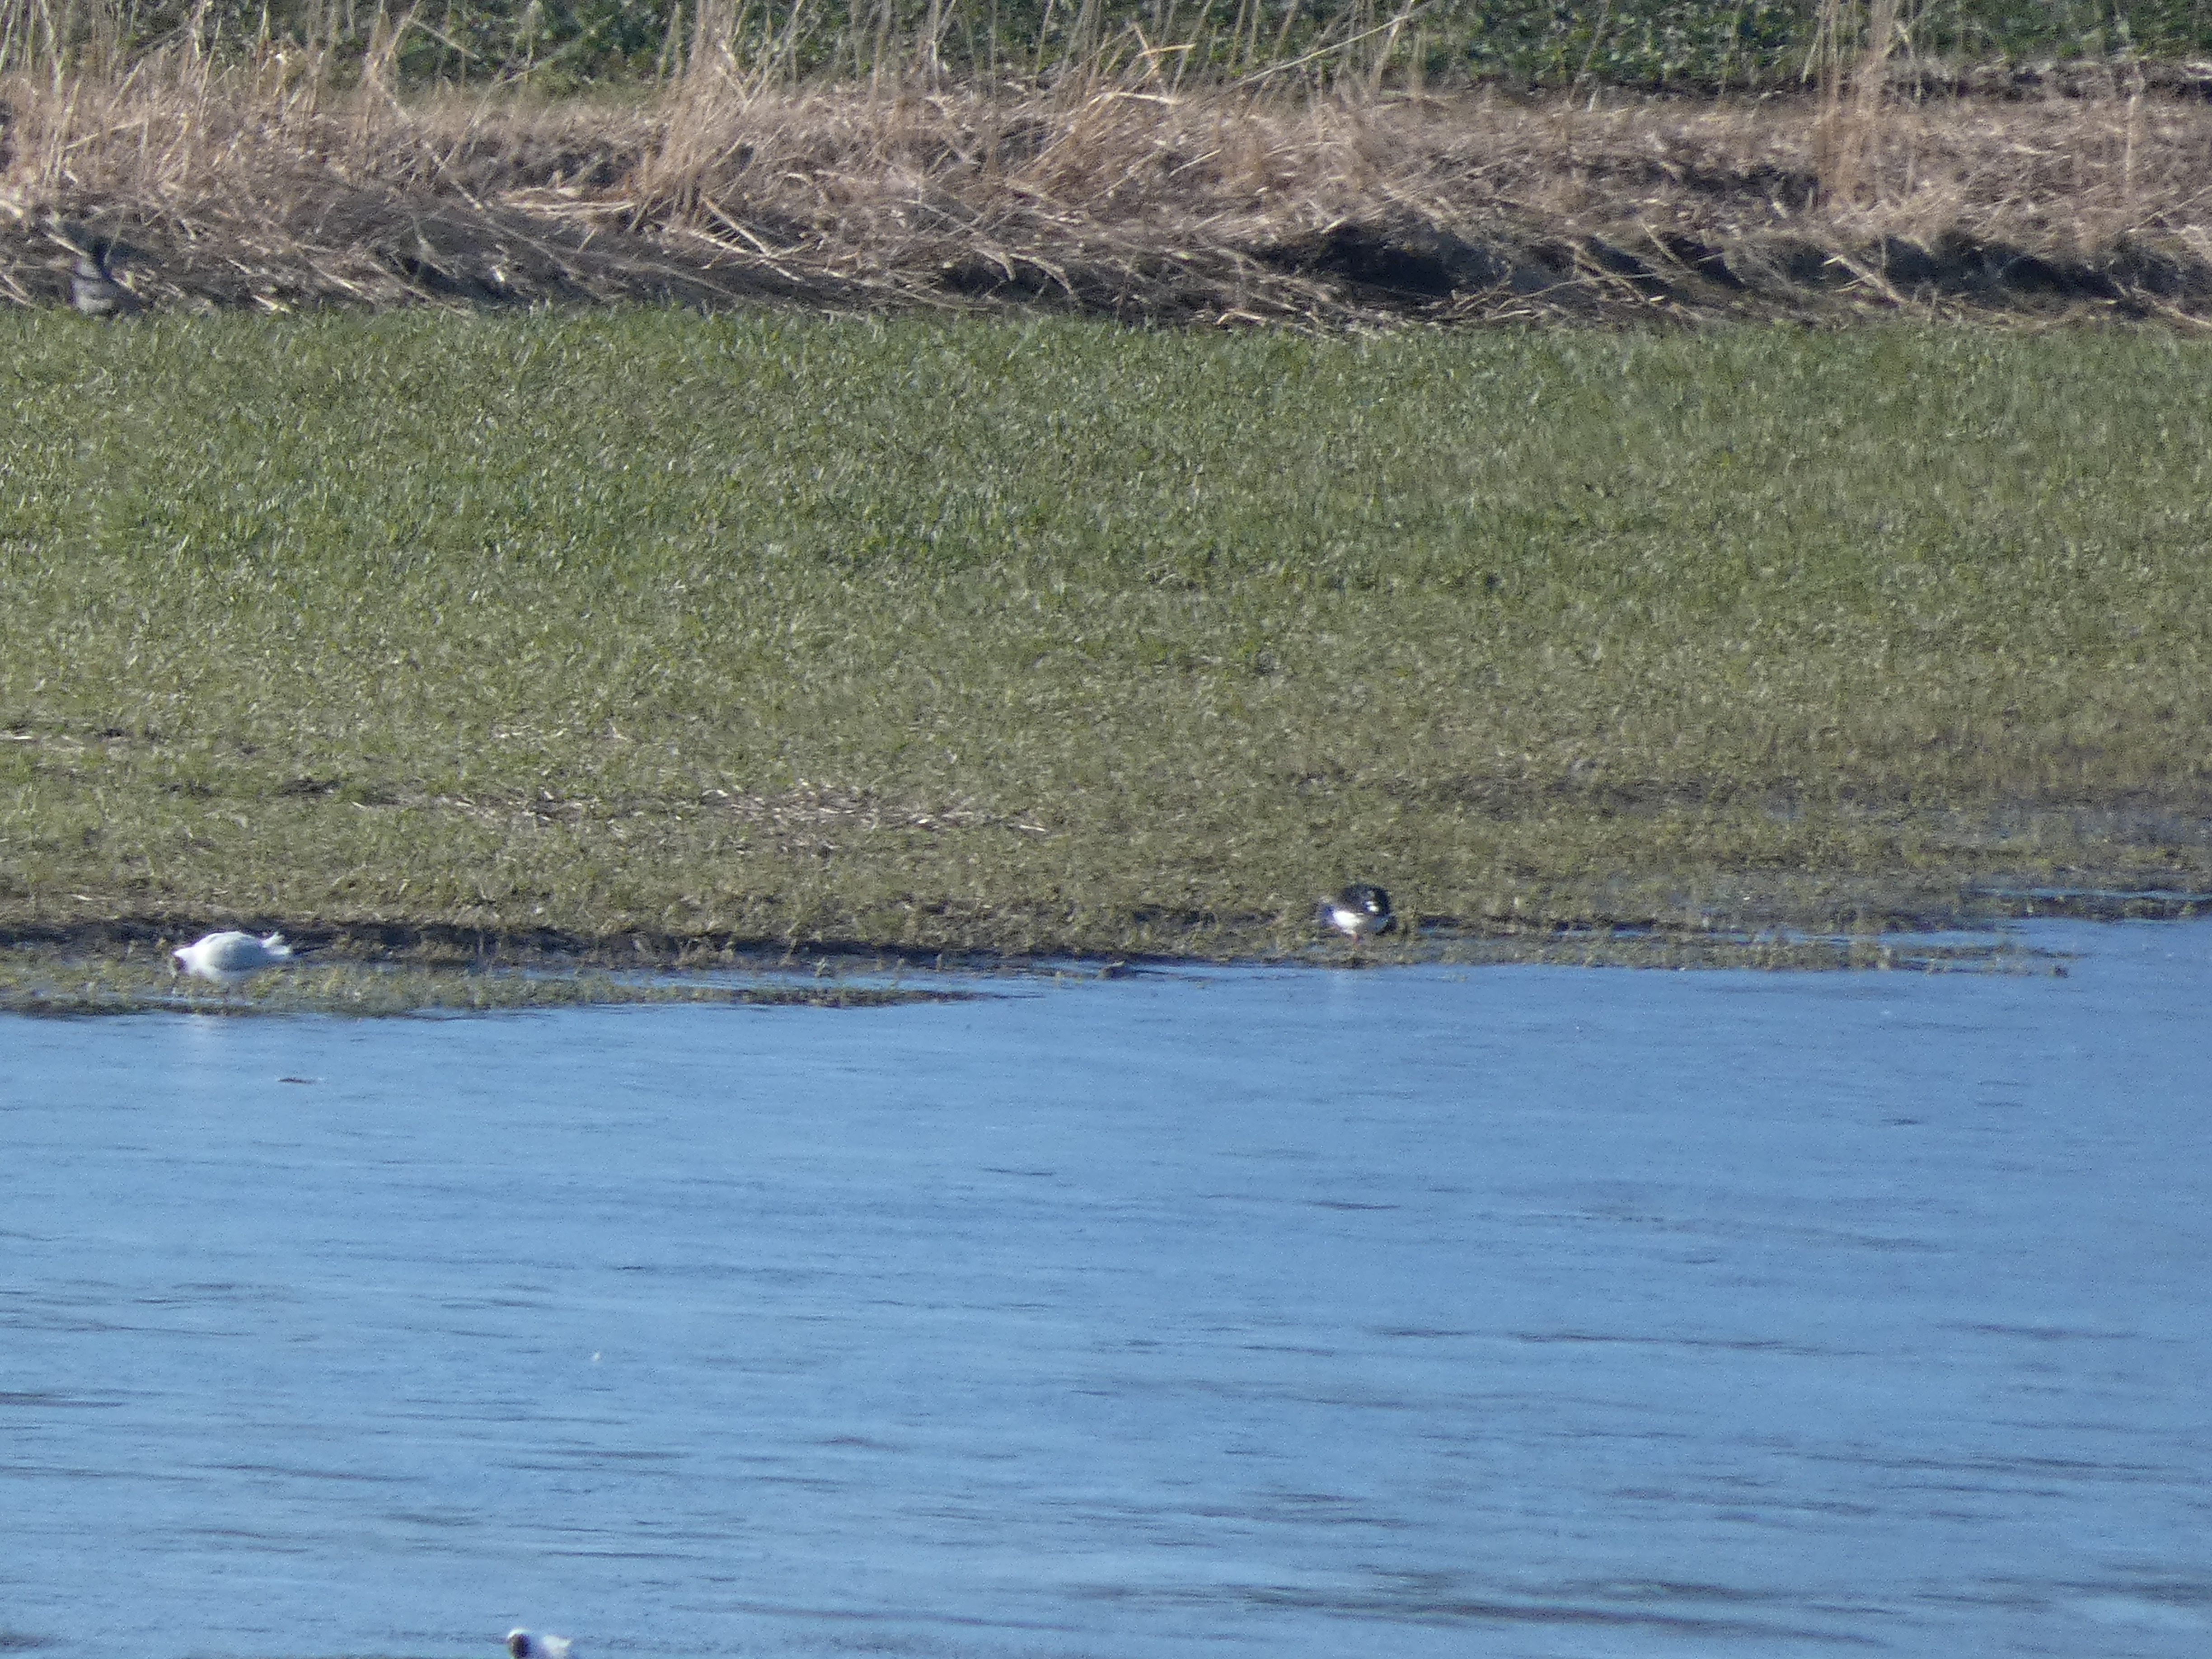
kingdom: Animalia
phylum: Chordata
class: Aves
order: Charadriiformes
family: Laridae
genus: Chroicocephalus
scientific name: Chroicocephalus ridibundus
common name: Hættemåge
